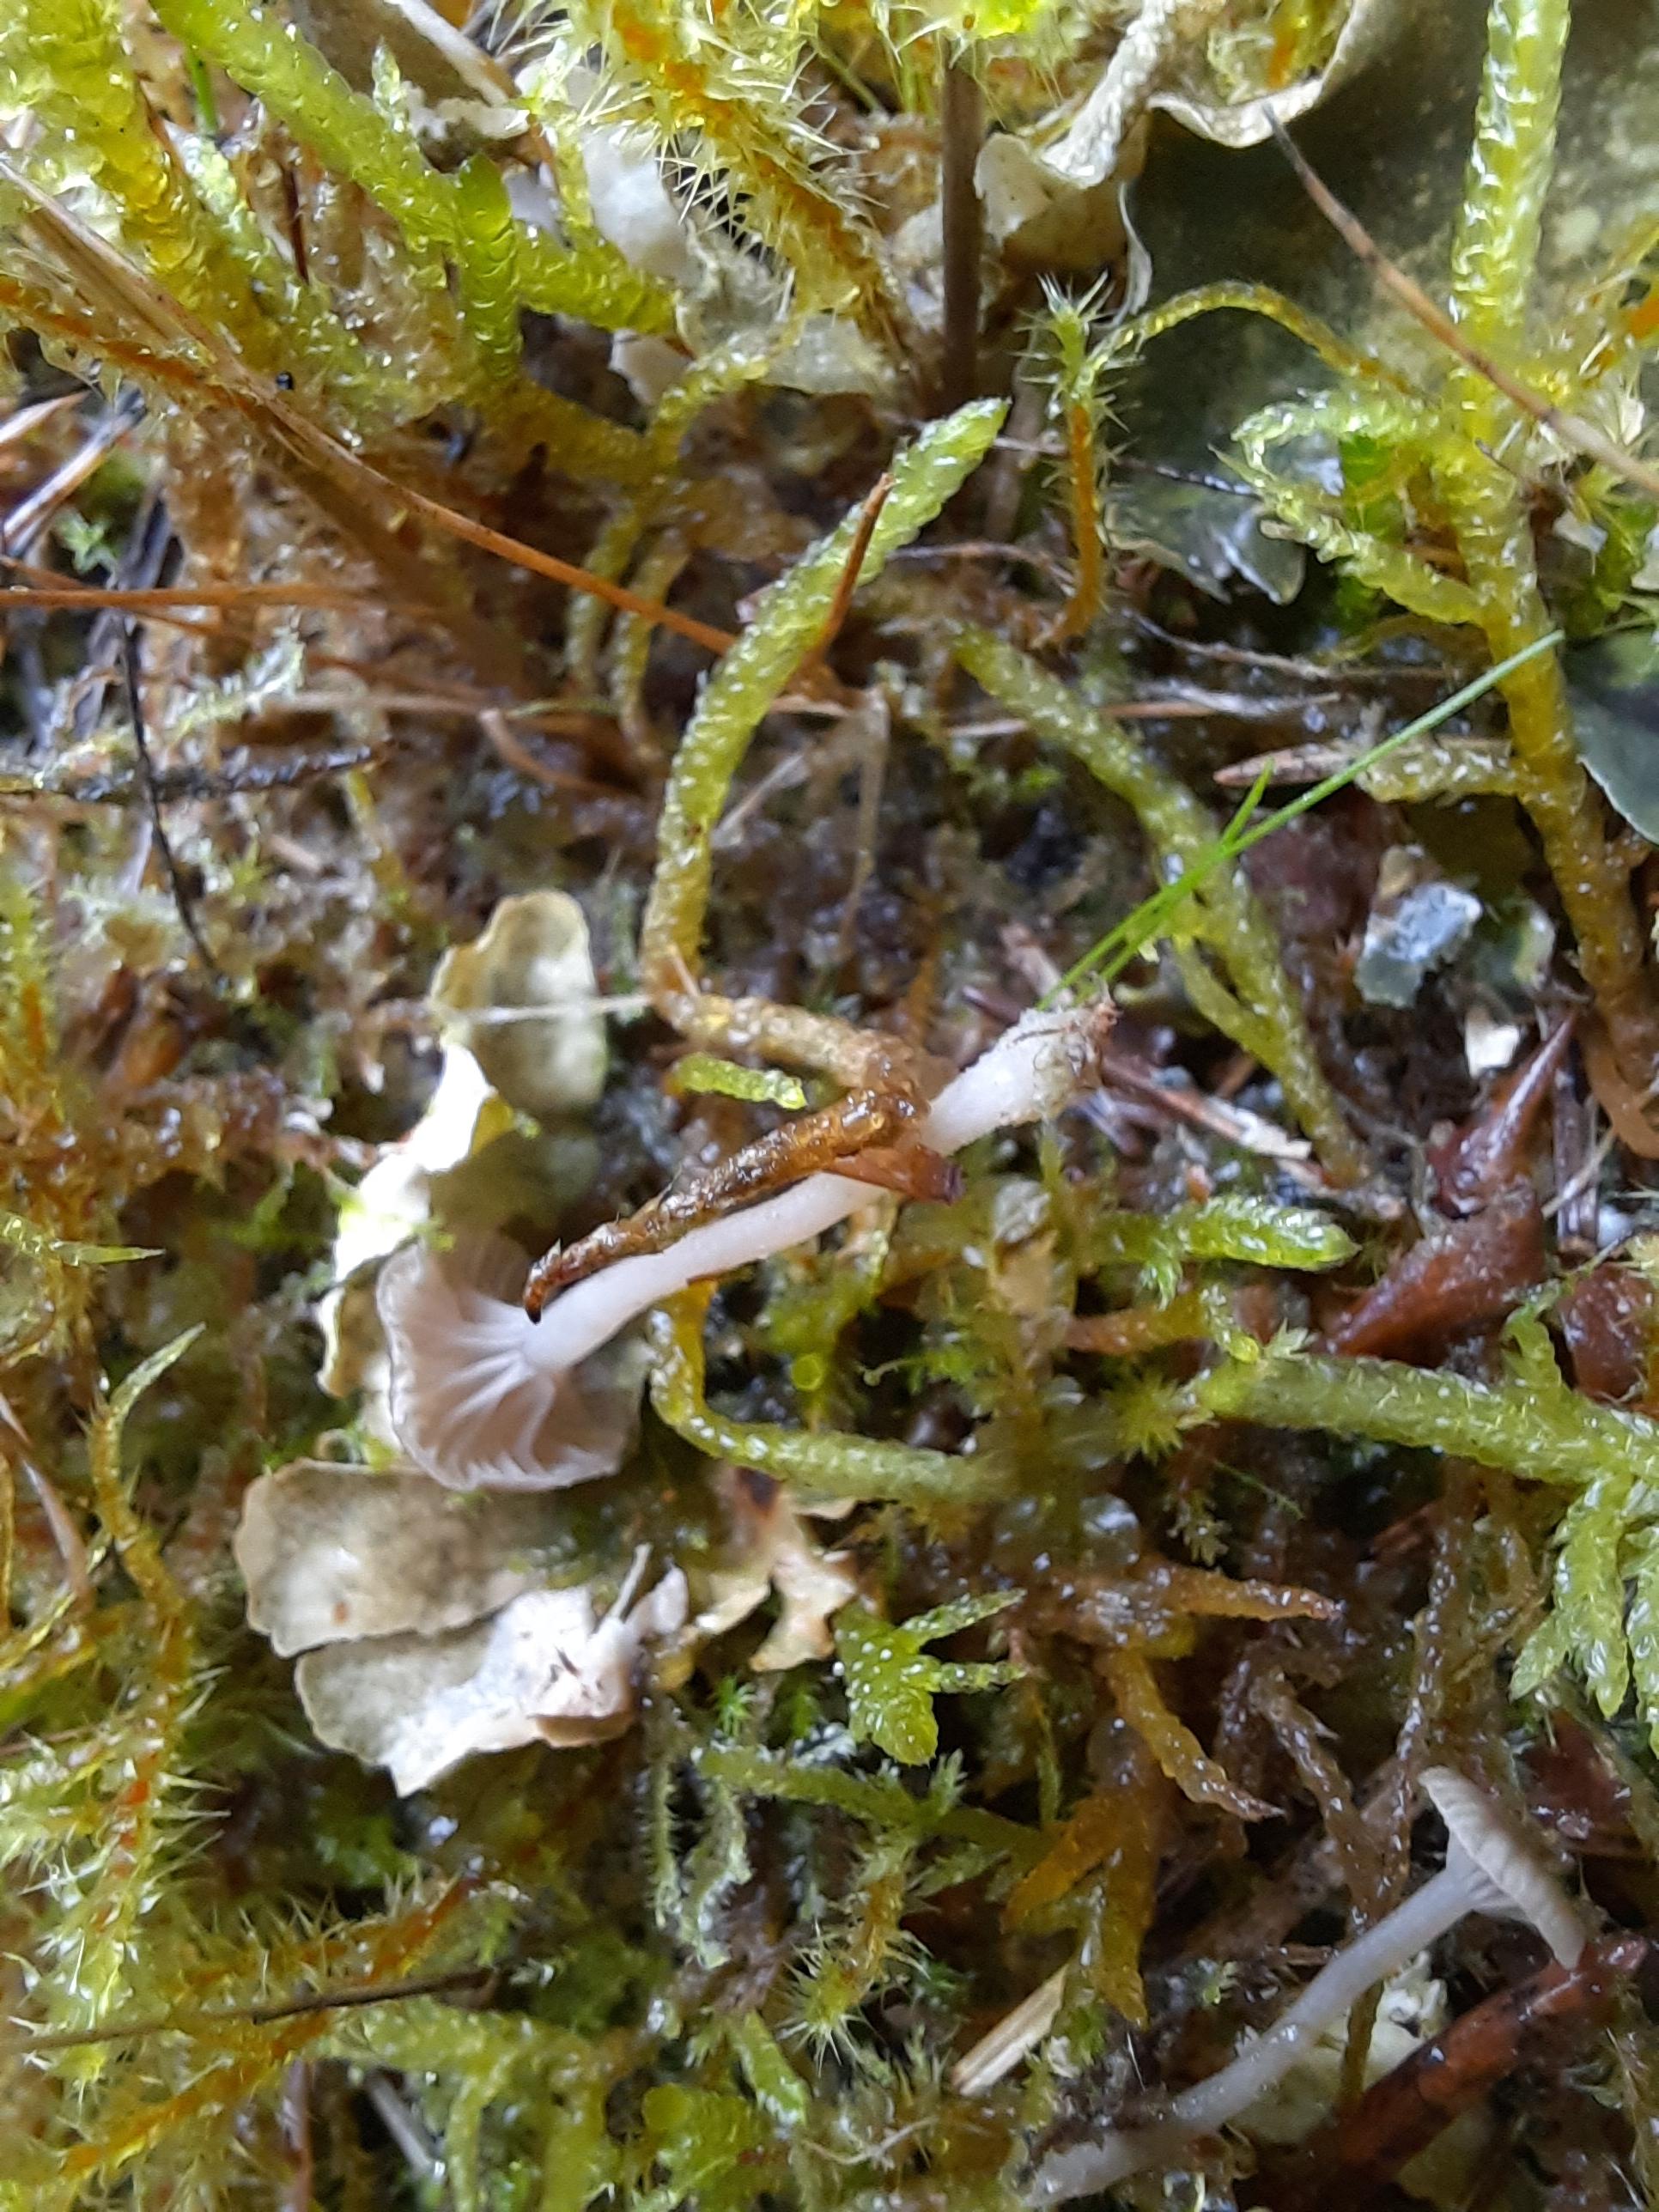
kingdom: Fungi
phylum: Basidiomycota
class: Agaricomycetes
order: Agaricales
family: Hygrophoraceae
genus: Arrhenia
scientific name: Arrhenia peltigerina
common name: skjoldlav-fontænehat
